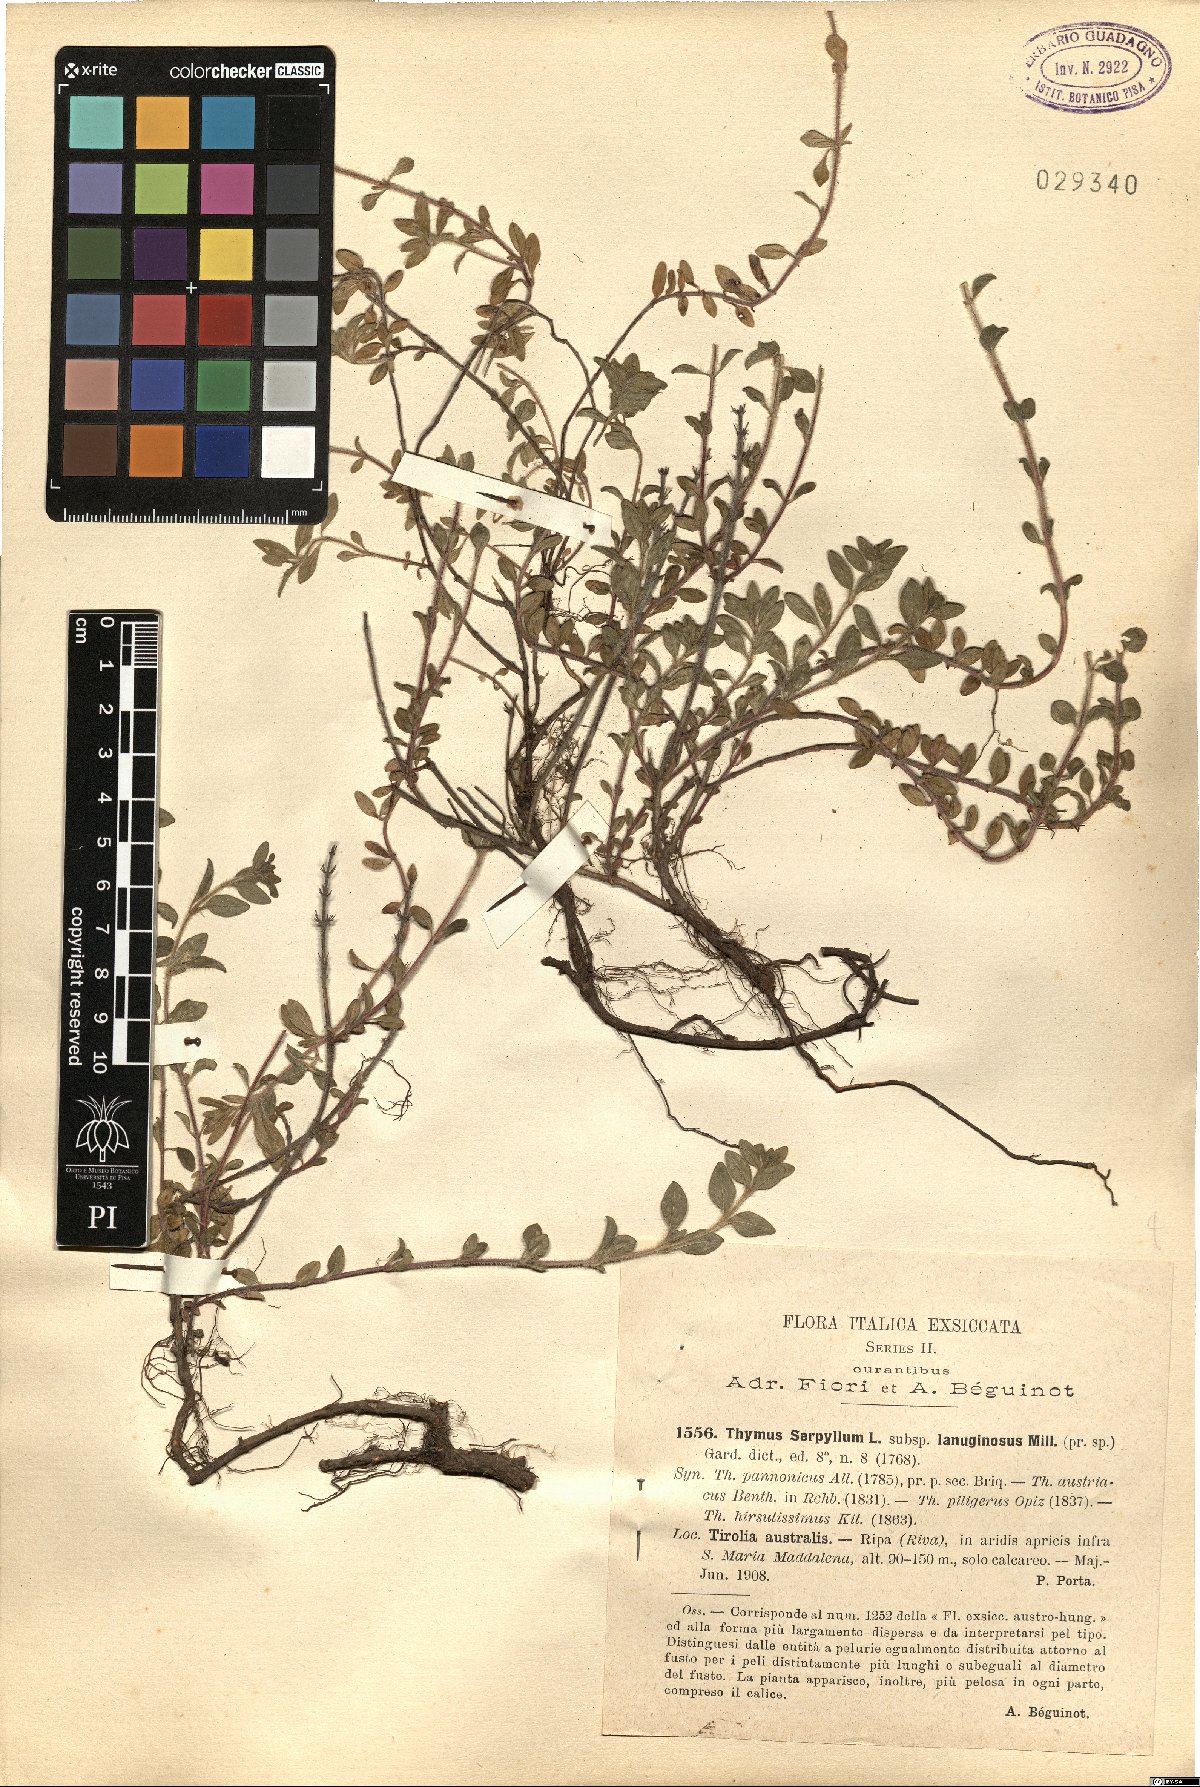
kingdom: Plantae
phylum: Tracheophyta
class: Magnoliopsida
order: Lamiales
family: Lamiaceae
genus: Thymus
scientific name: Thymus pulegioides
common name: Large thyme
